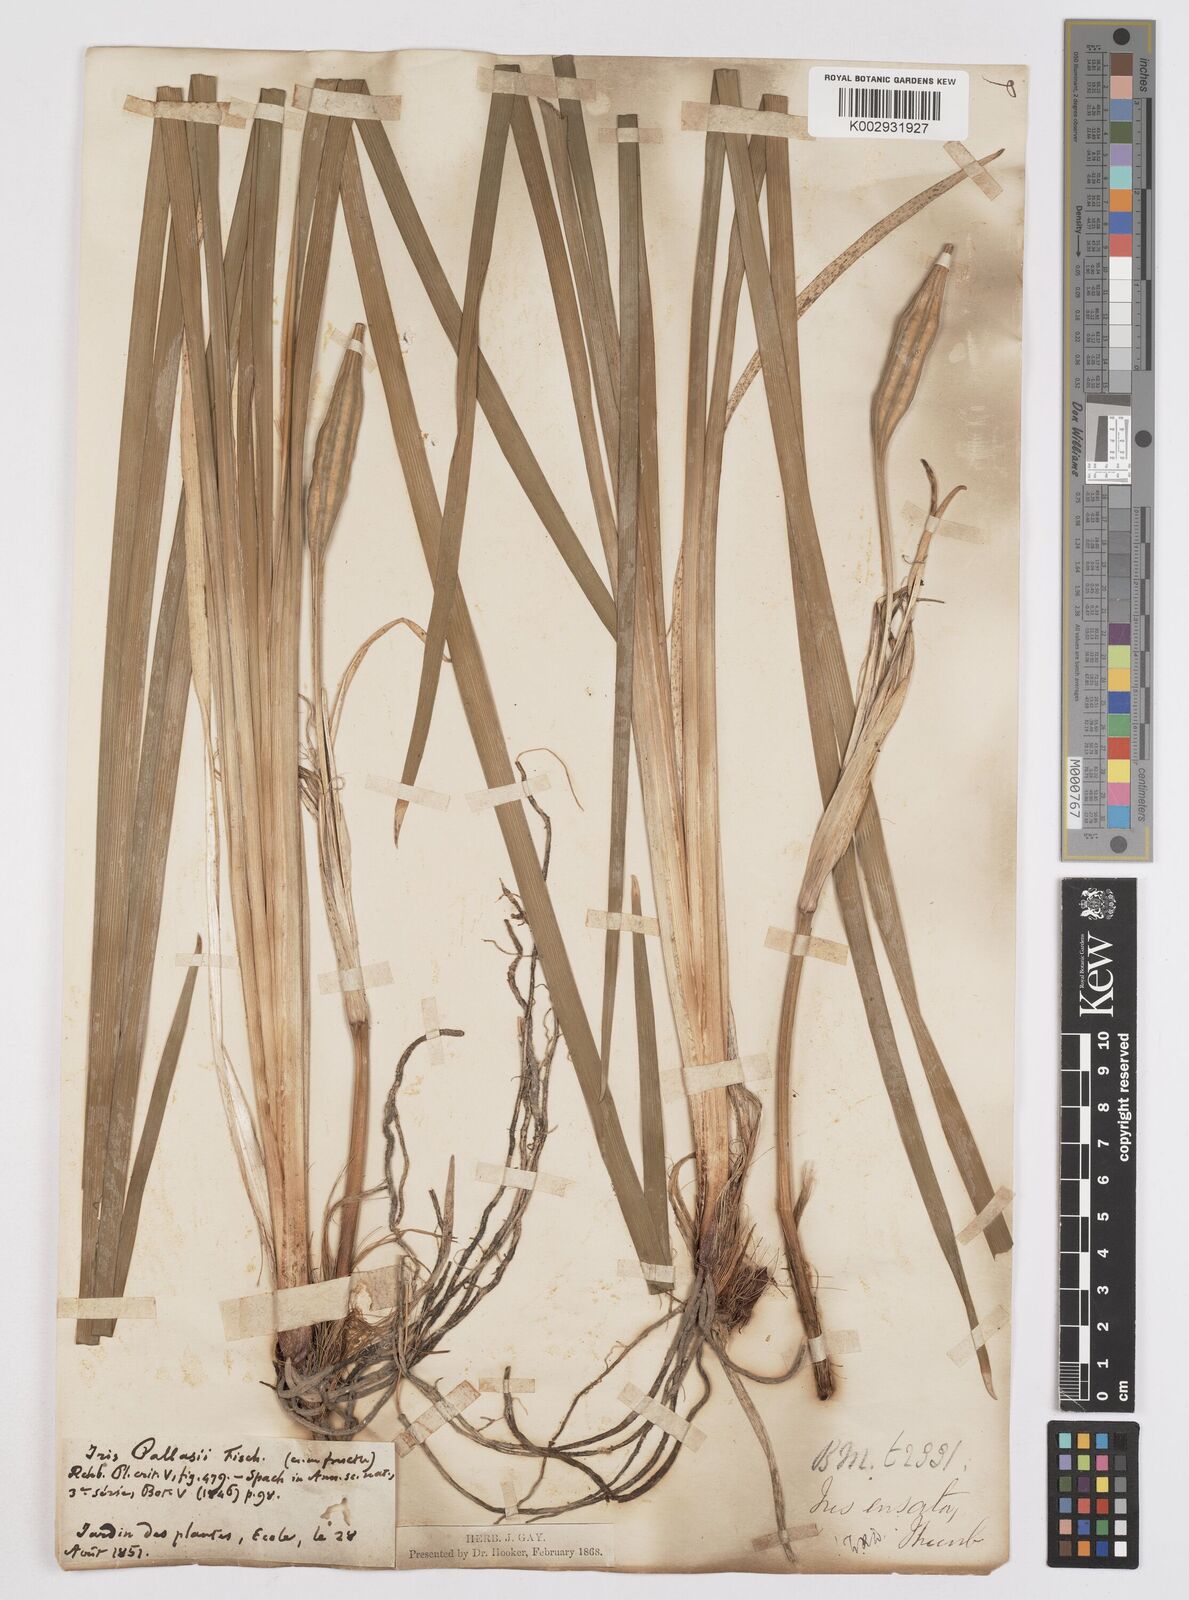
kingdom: Plantae
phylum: Tracheophyta
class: Liliopsida
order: Asparagales
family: Iridaceae
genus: Iris
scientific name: Iris ensata
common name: Beaked iris
